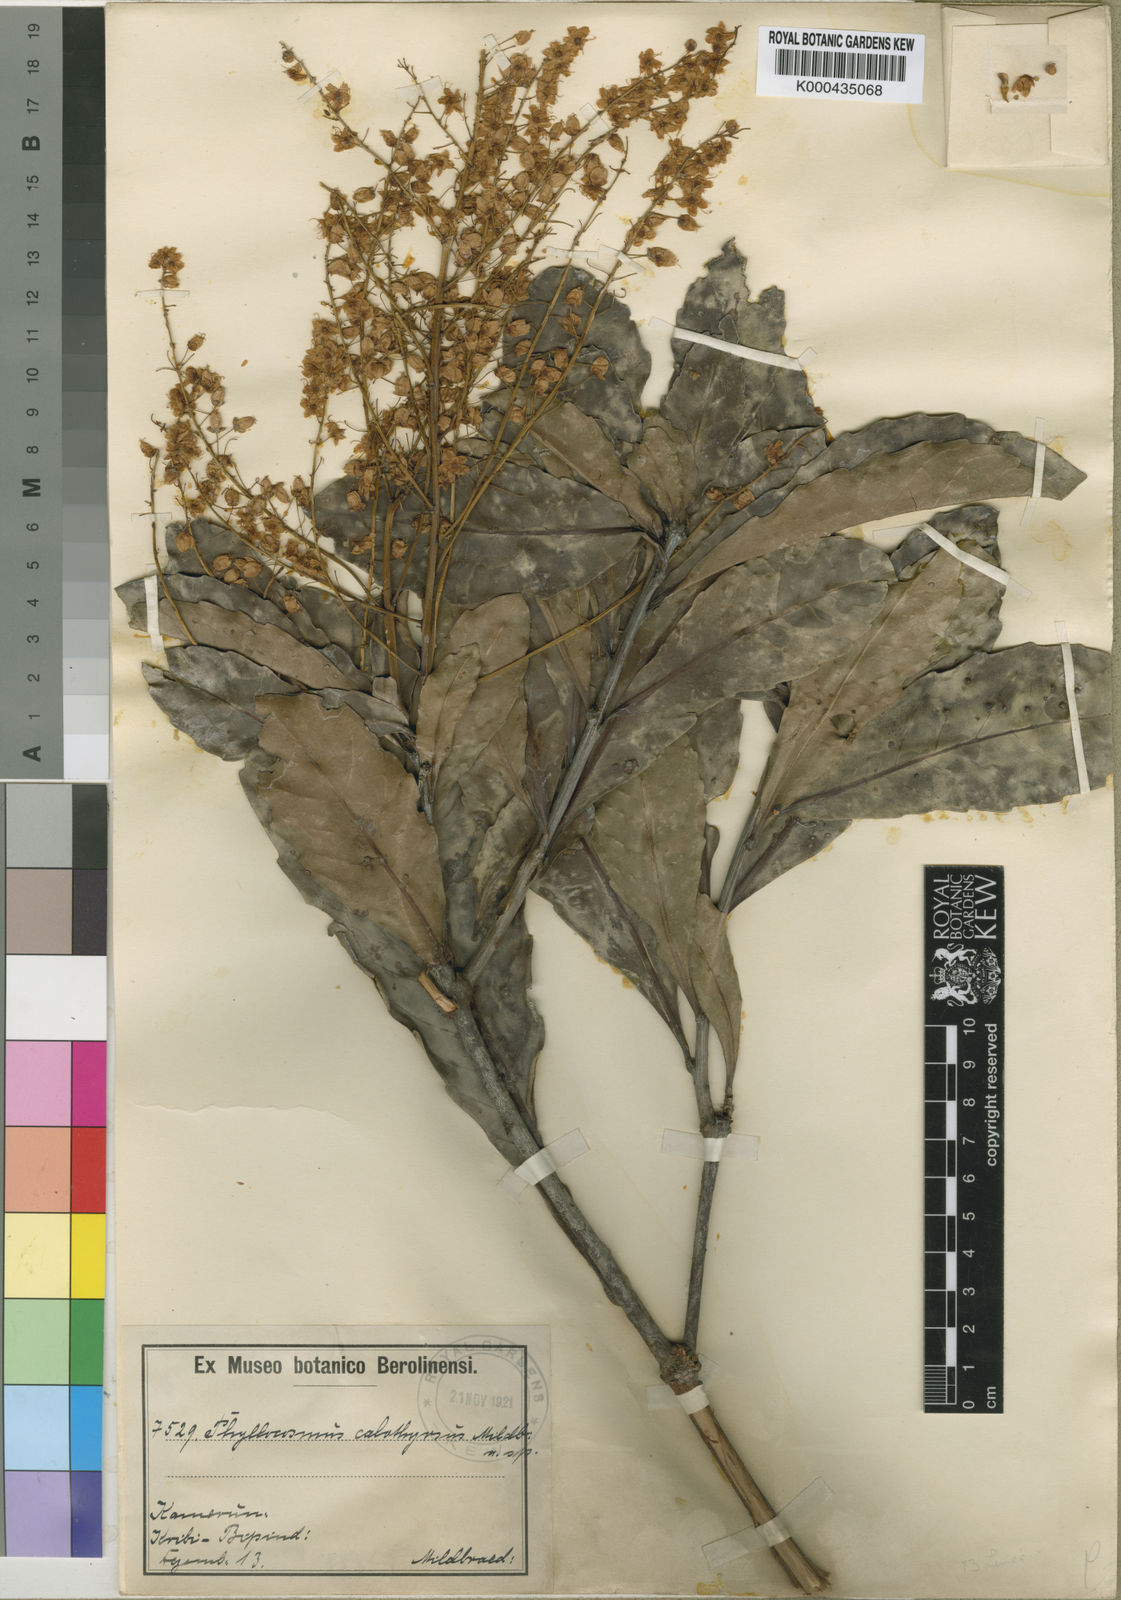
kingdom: Plantae
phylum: Tracheophyta
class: Magnoliopsida
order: Malpighiales
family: Ixonanthaceae
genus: Phyllocosmus
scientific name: Phyllocosmus calothyrsus
